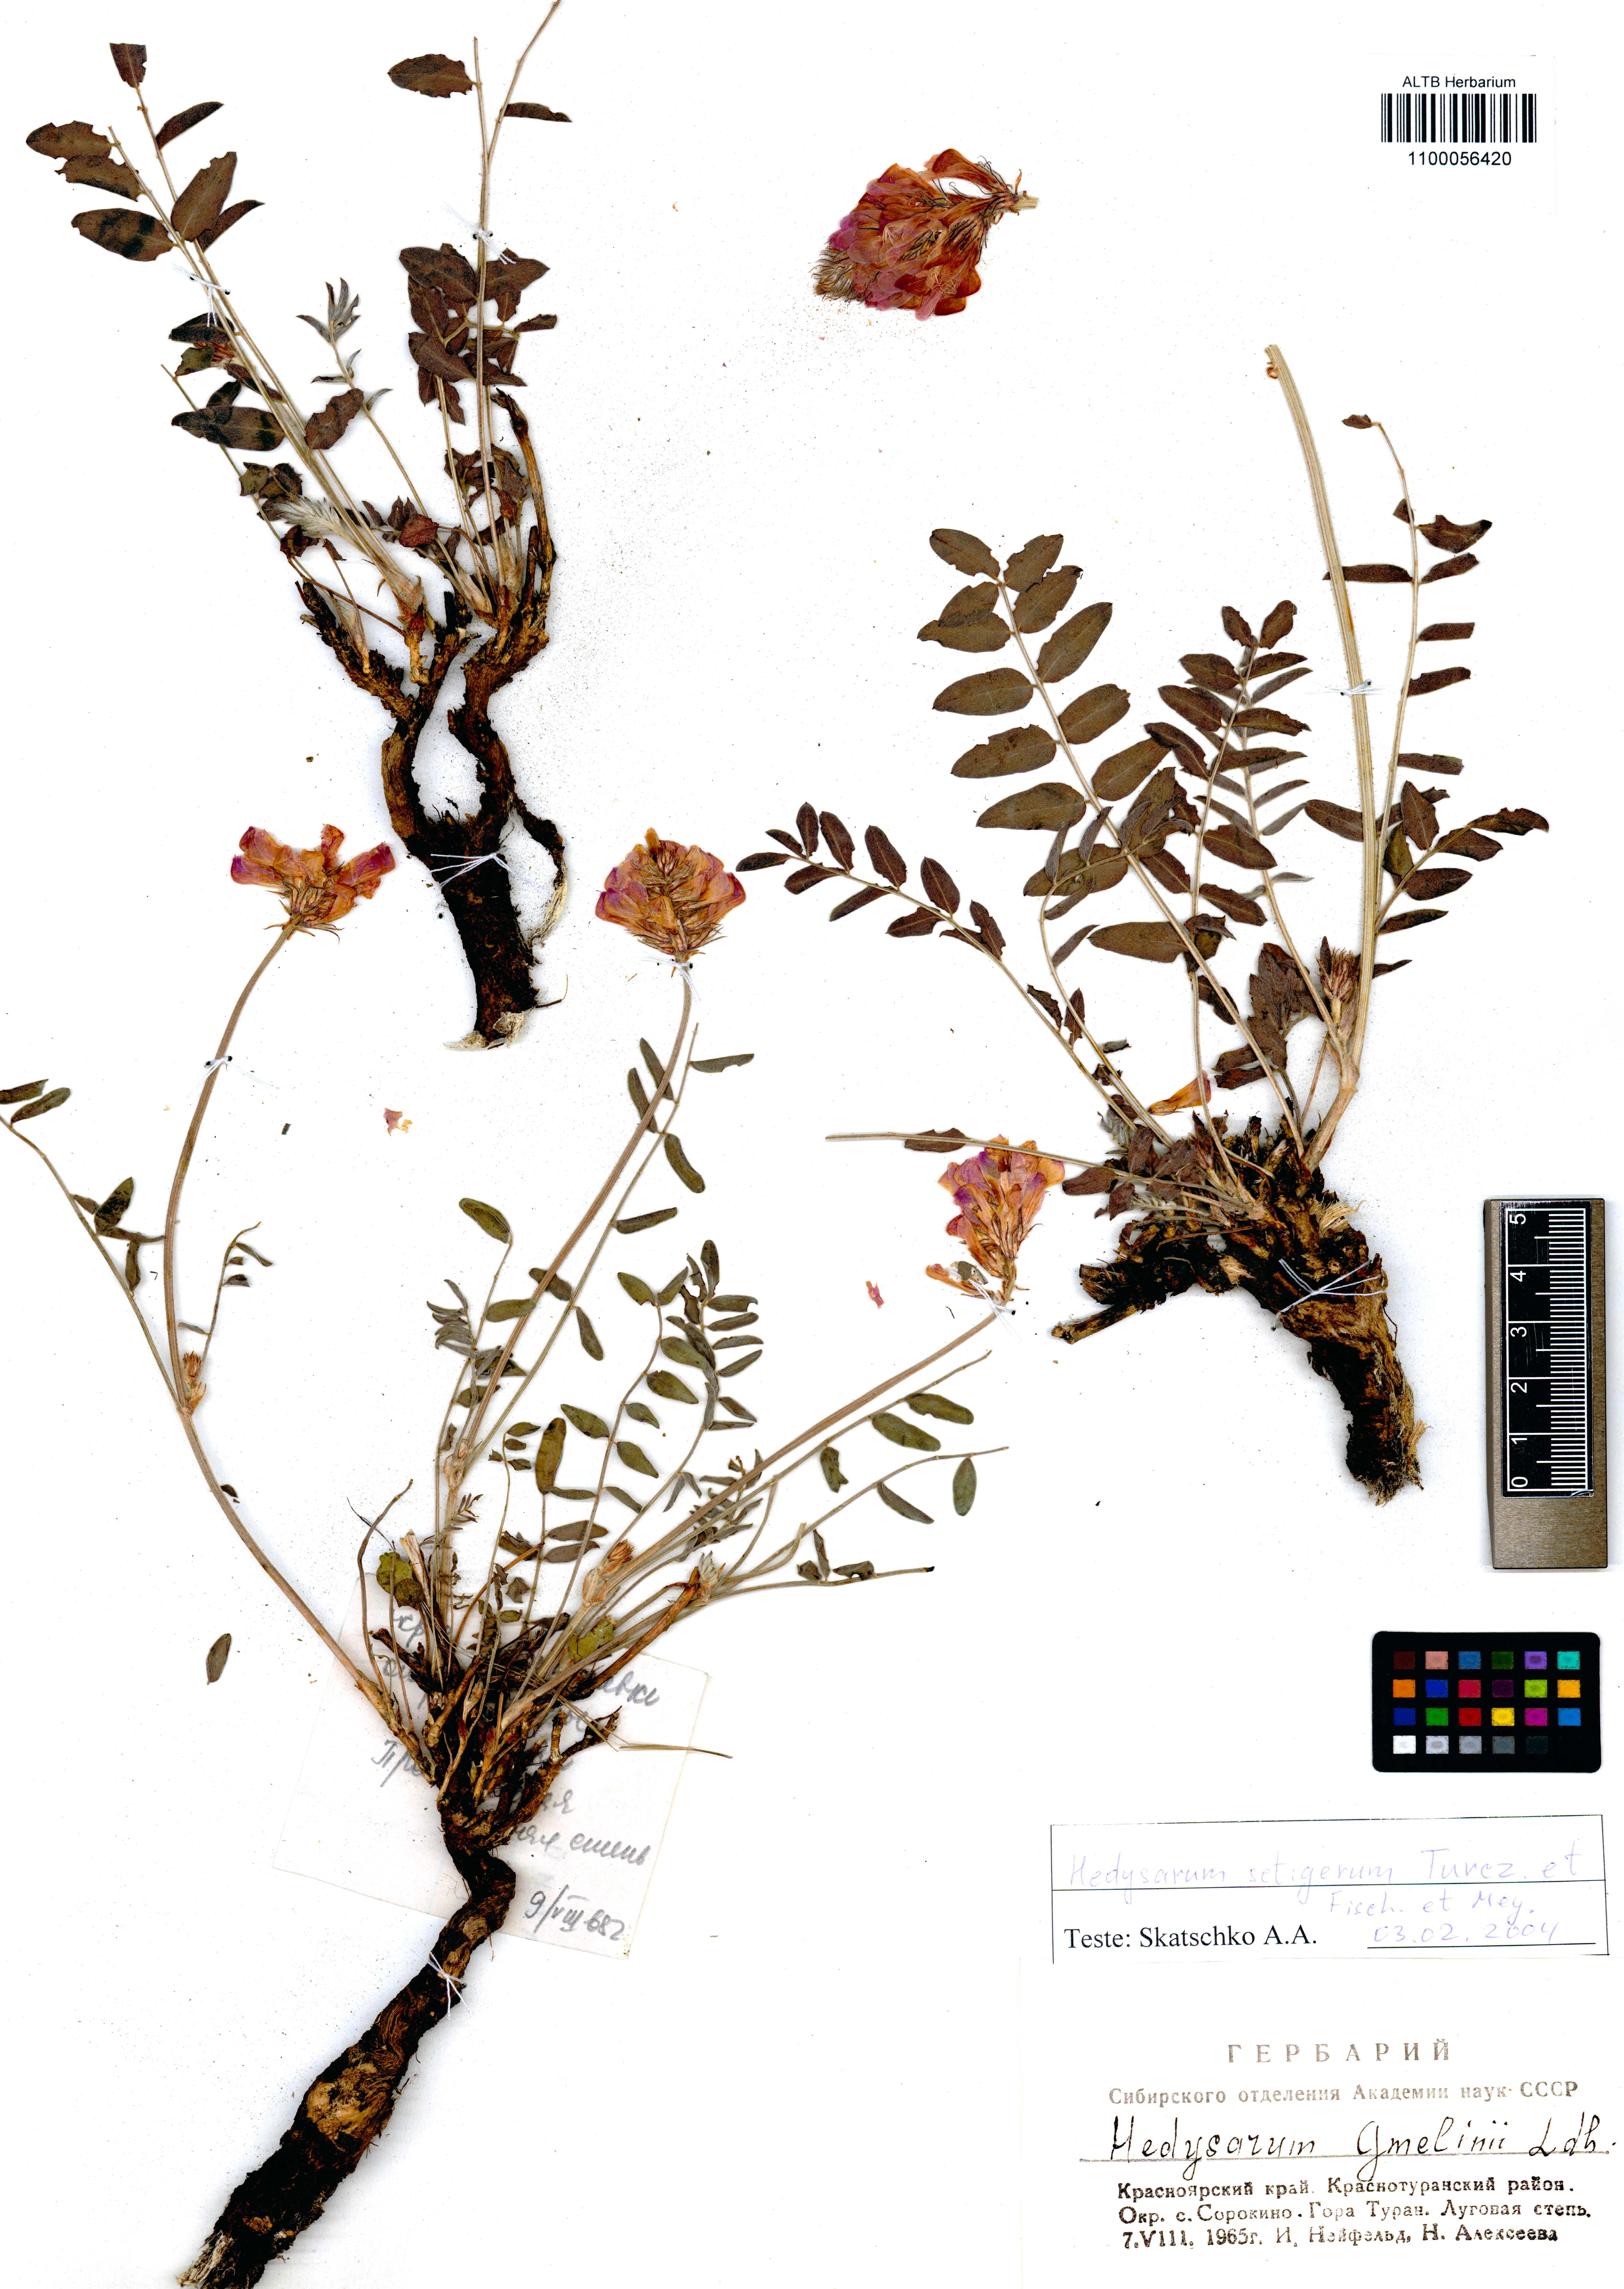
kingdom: Plantae
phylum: Tracheophyta
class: Magnoliopsida
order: Fabales
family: Fabaceae
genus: Hedysarum
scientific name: Hedysarum setigerum
